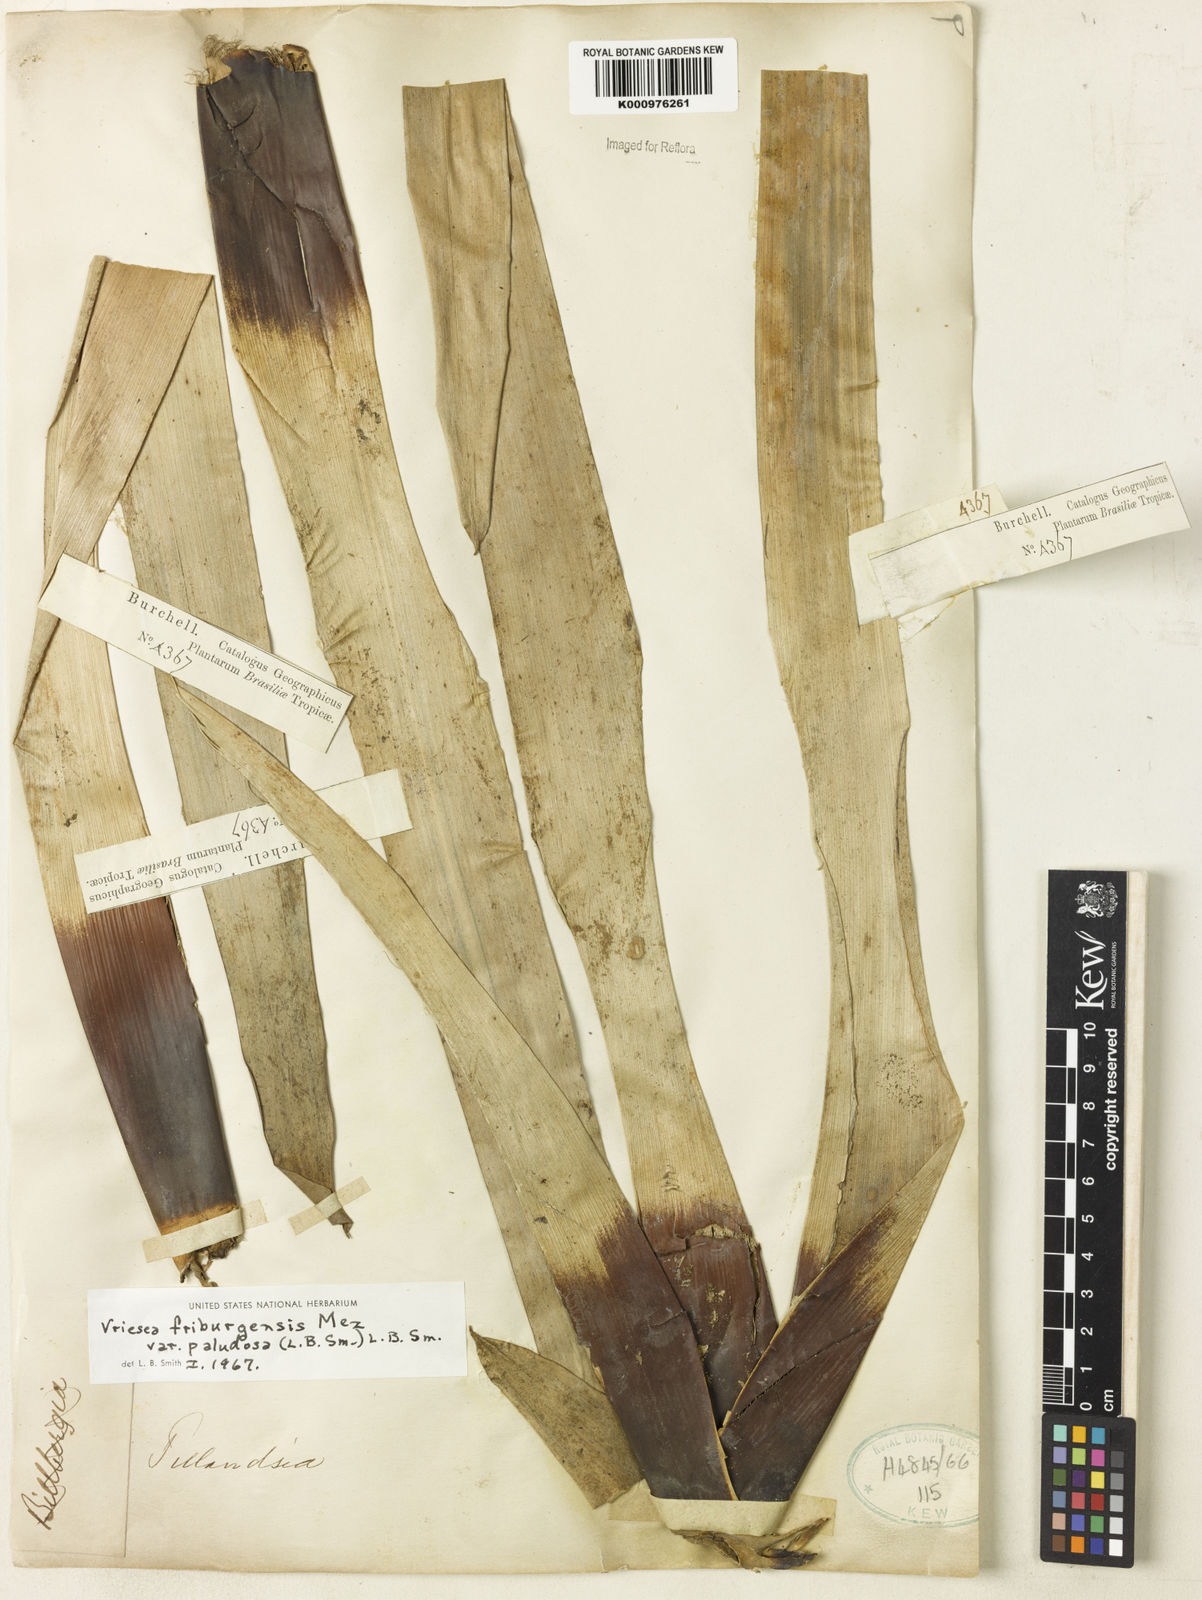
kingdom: Plantae
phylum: Tracheophyta
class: Liliopsida
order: Poales
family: Bromeliaceae
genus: Vriesea
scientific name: Vriesea friburgensis
